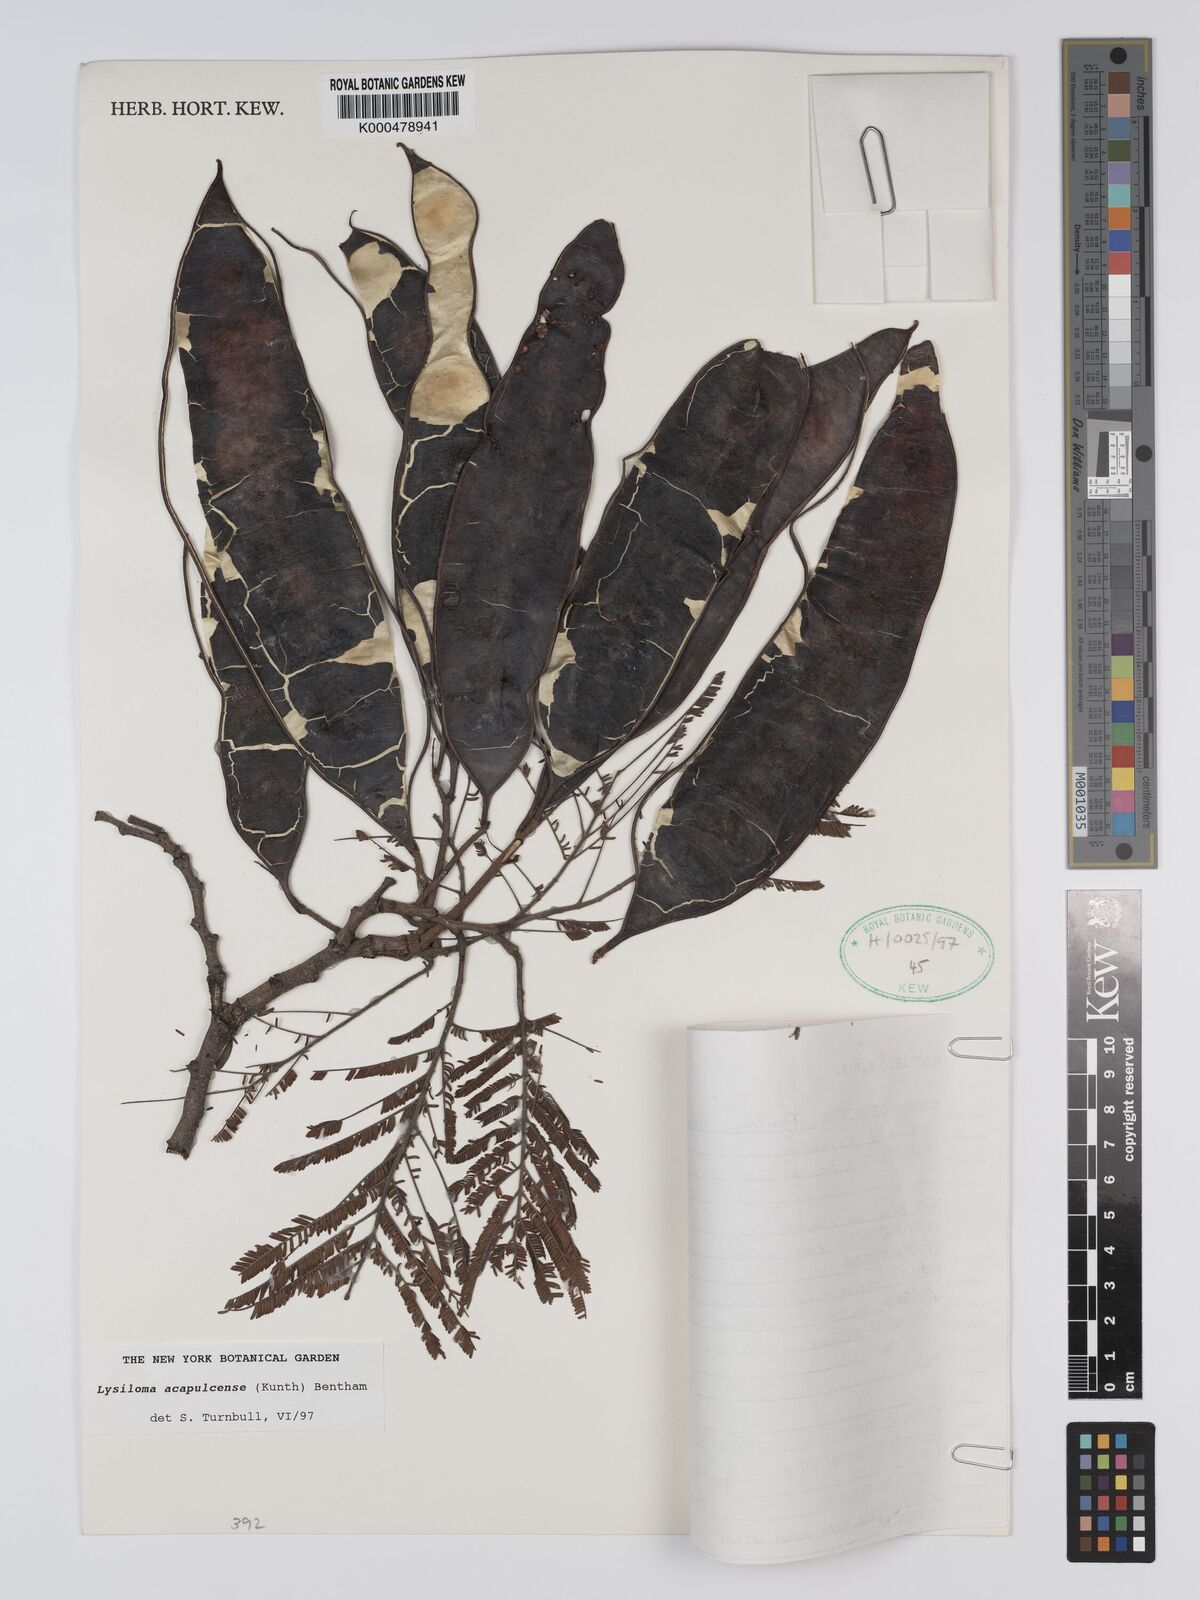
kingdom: Plantae
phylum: Tracheophyta
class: Magnoliopsida
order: Fabales
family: Fabaceae
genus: Lysiloma
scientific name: Lysiloma
